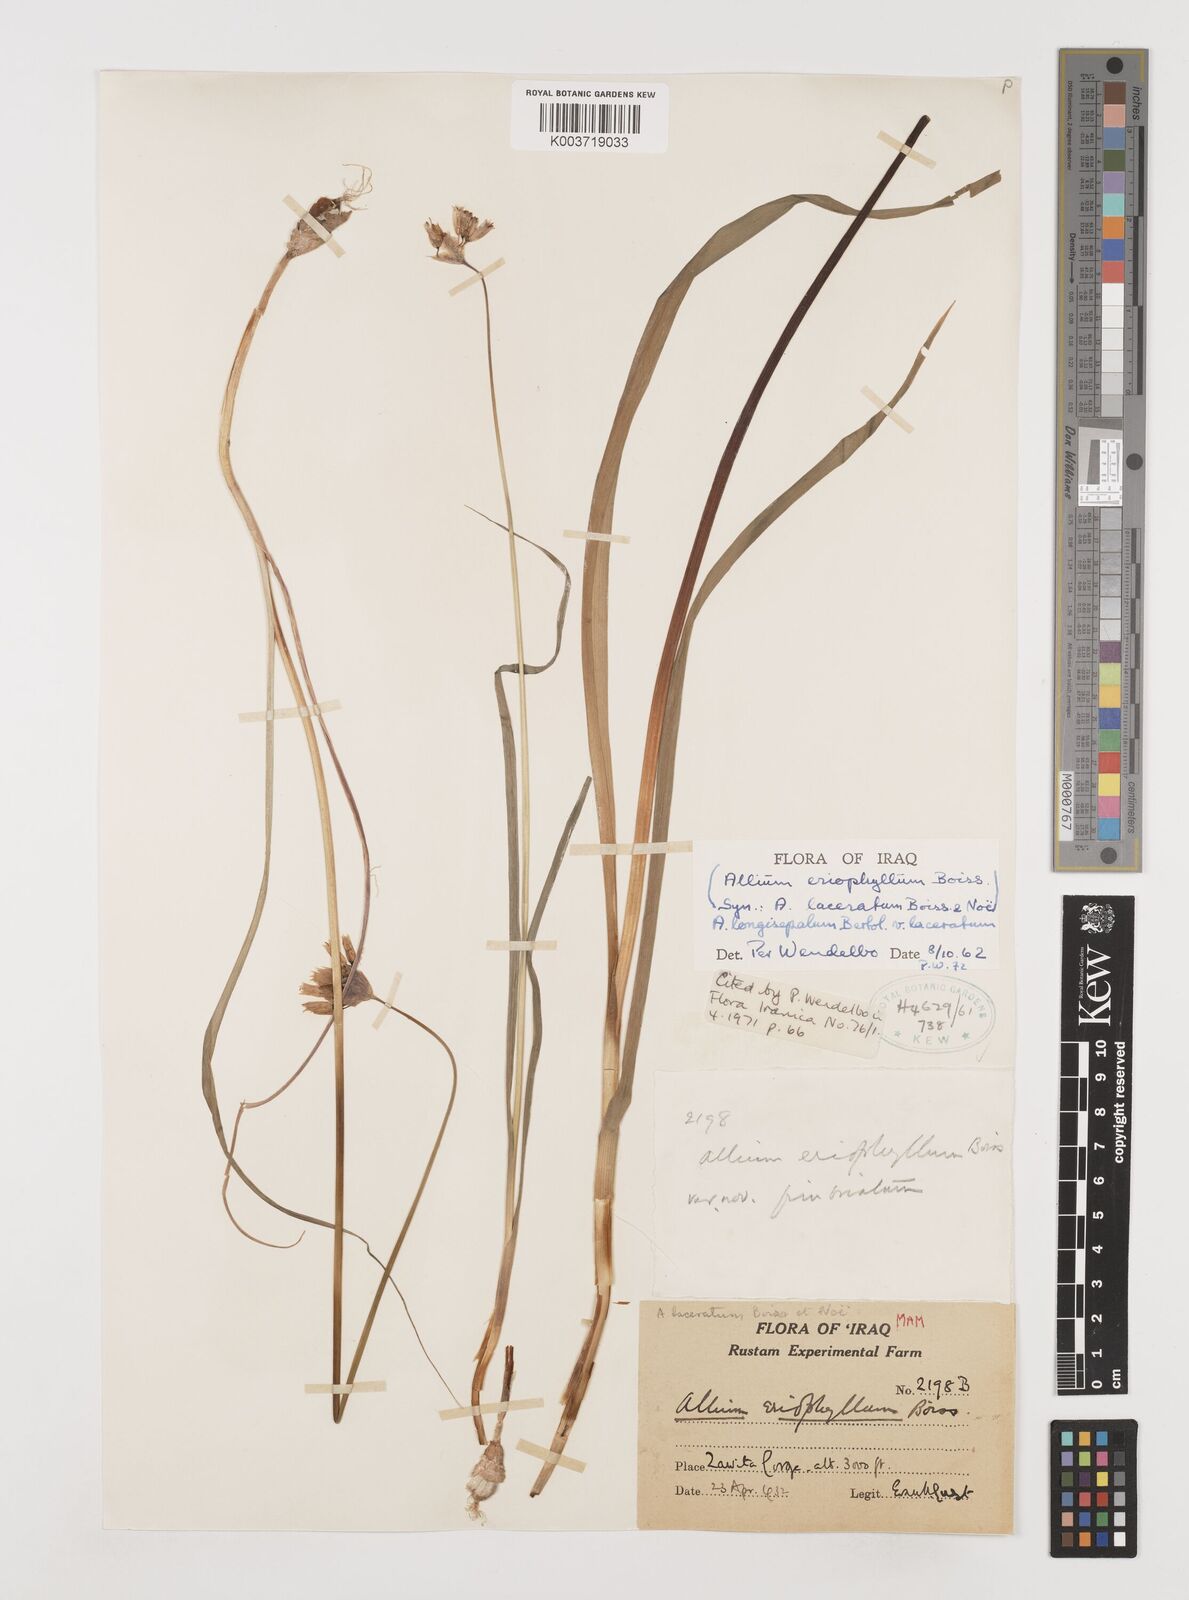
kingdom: Plantae
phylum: Tracheophyta
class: Liliopsida
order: Asparagales
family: Amaryllidaceae
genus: Allium
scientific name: Allium longisepalum
